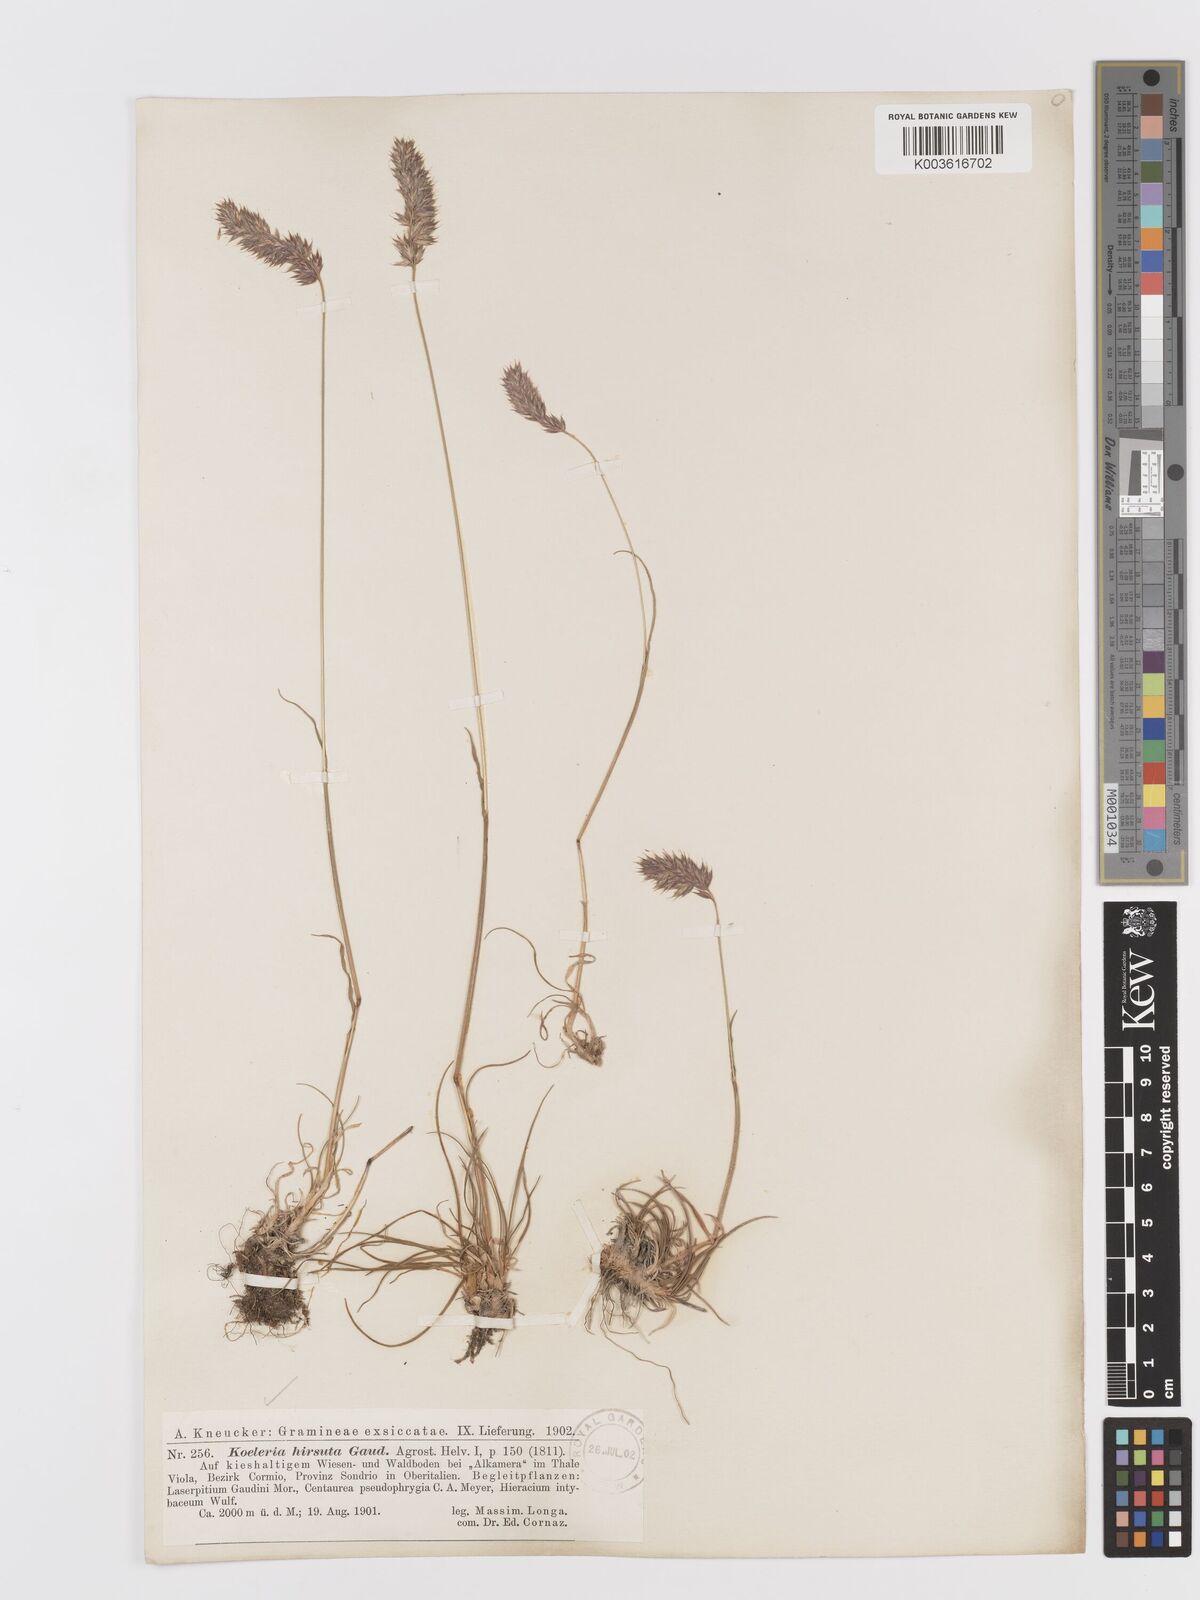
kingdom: Plantae
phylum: Tracheophyta
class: Liliopsida
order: Poales
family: Poaceae
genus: Koeleria
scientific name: Koeleria hirsuta
